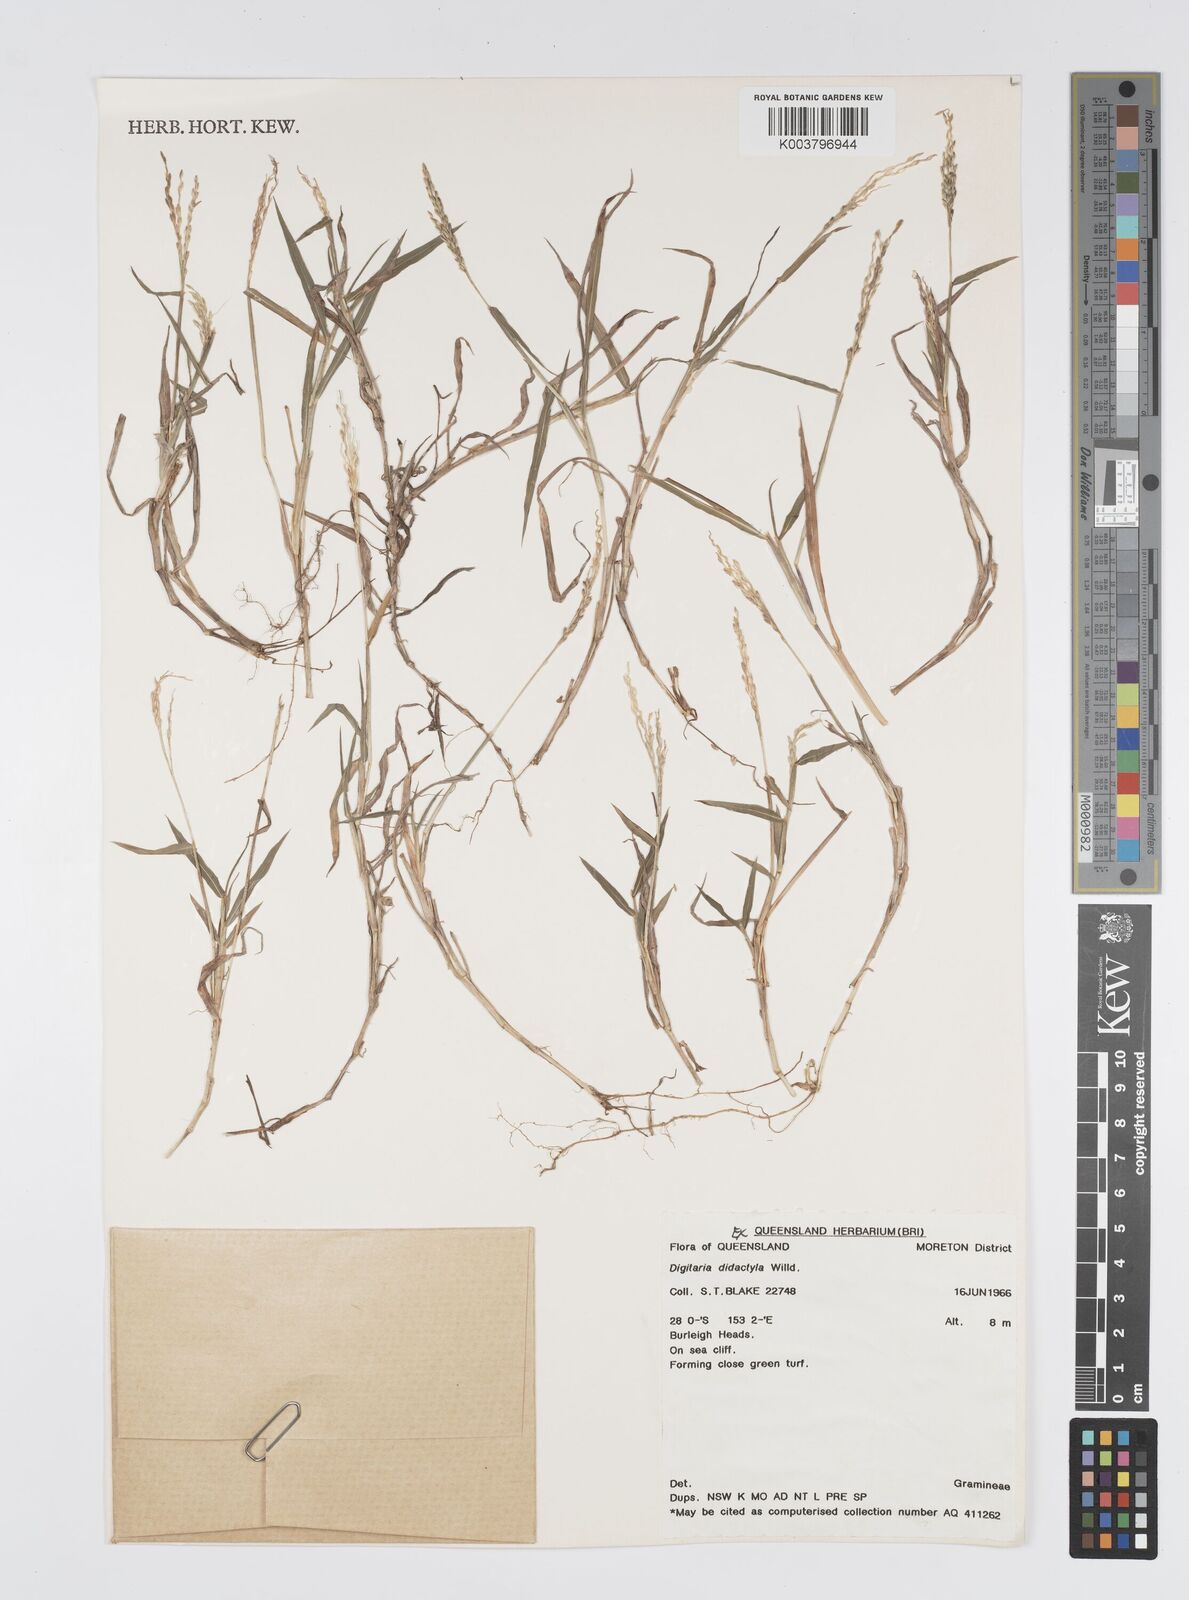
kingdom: Plantae
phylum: Tracheophyta
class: Liliopsida
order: Poales
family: Poaceae
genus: Digitaria
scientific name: Digitaria didactyla
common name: Blue couch
